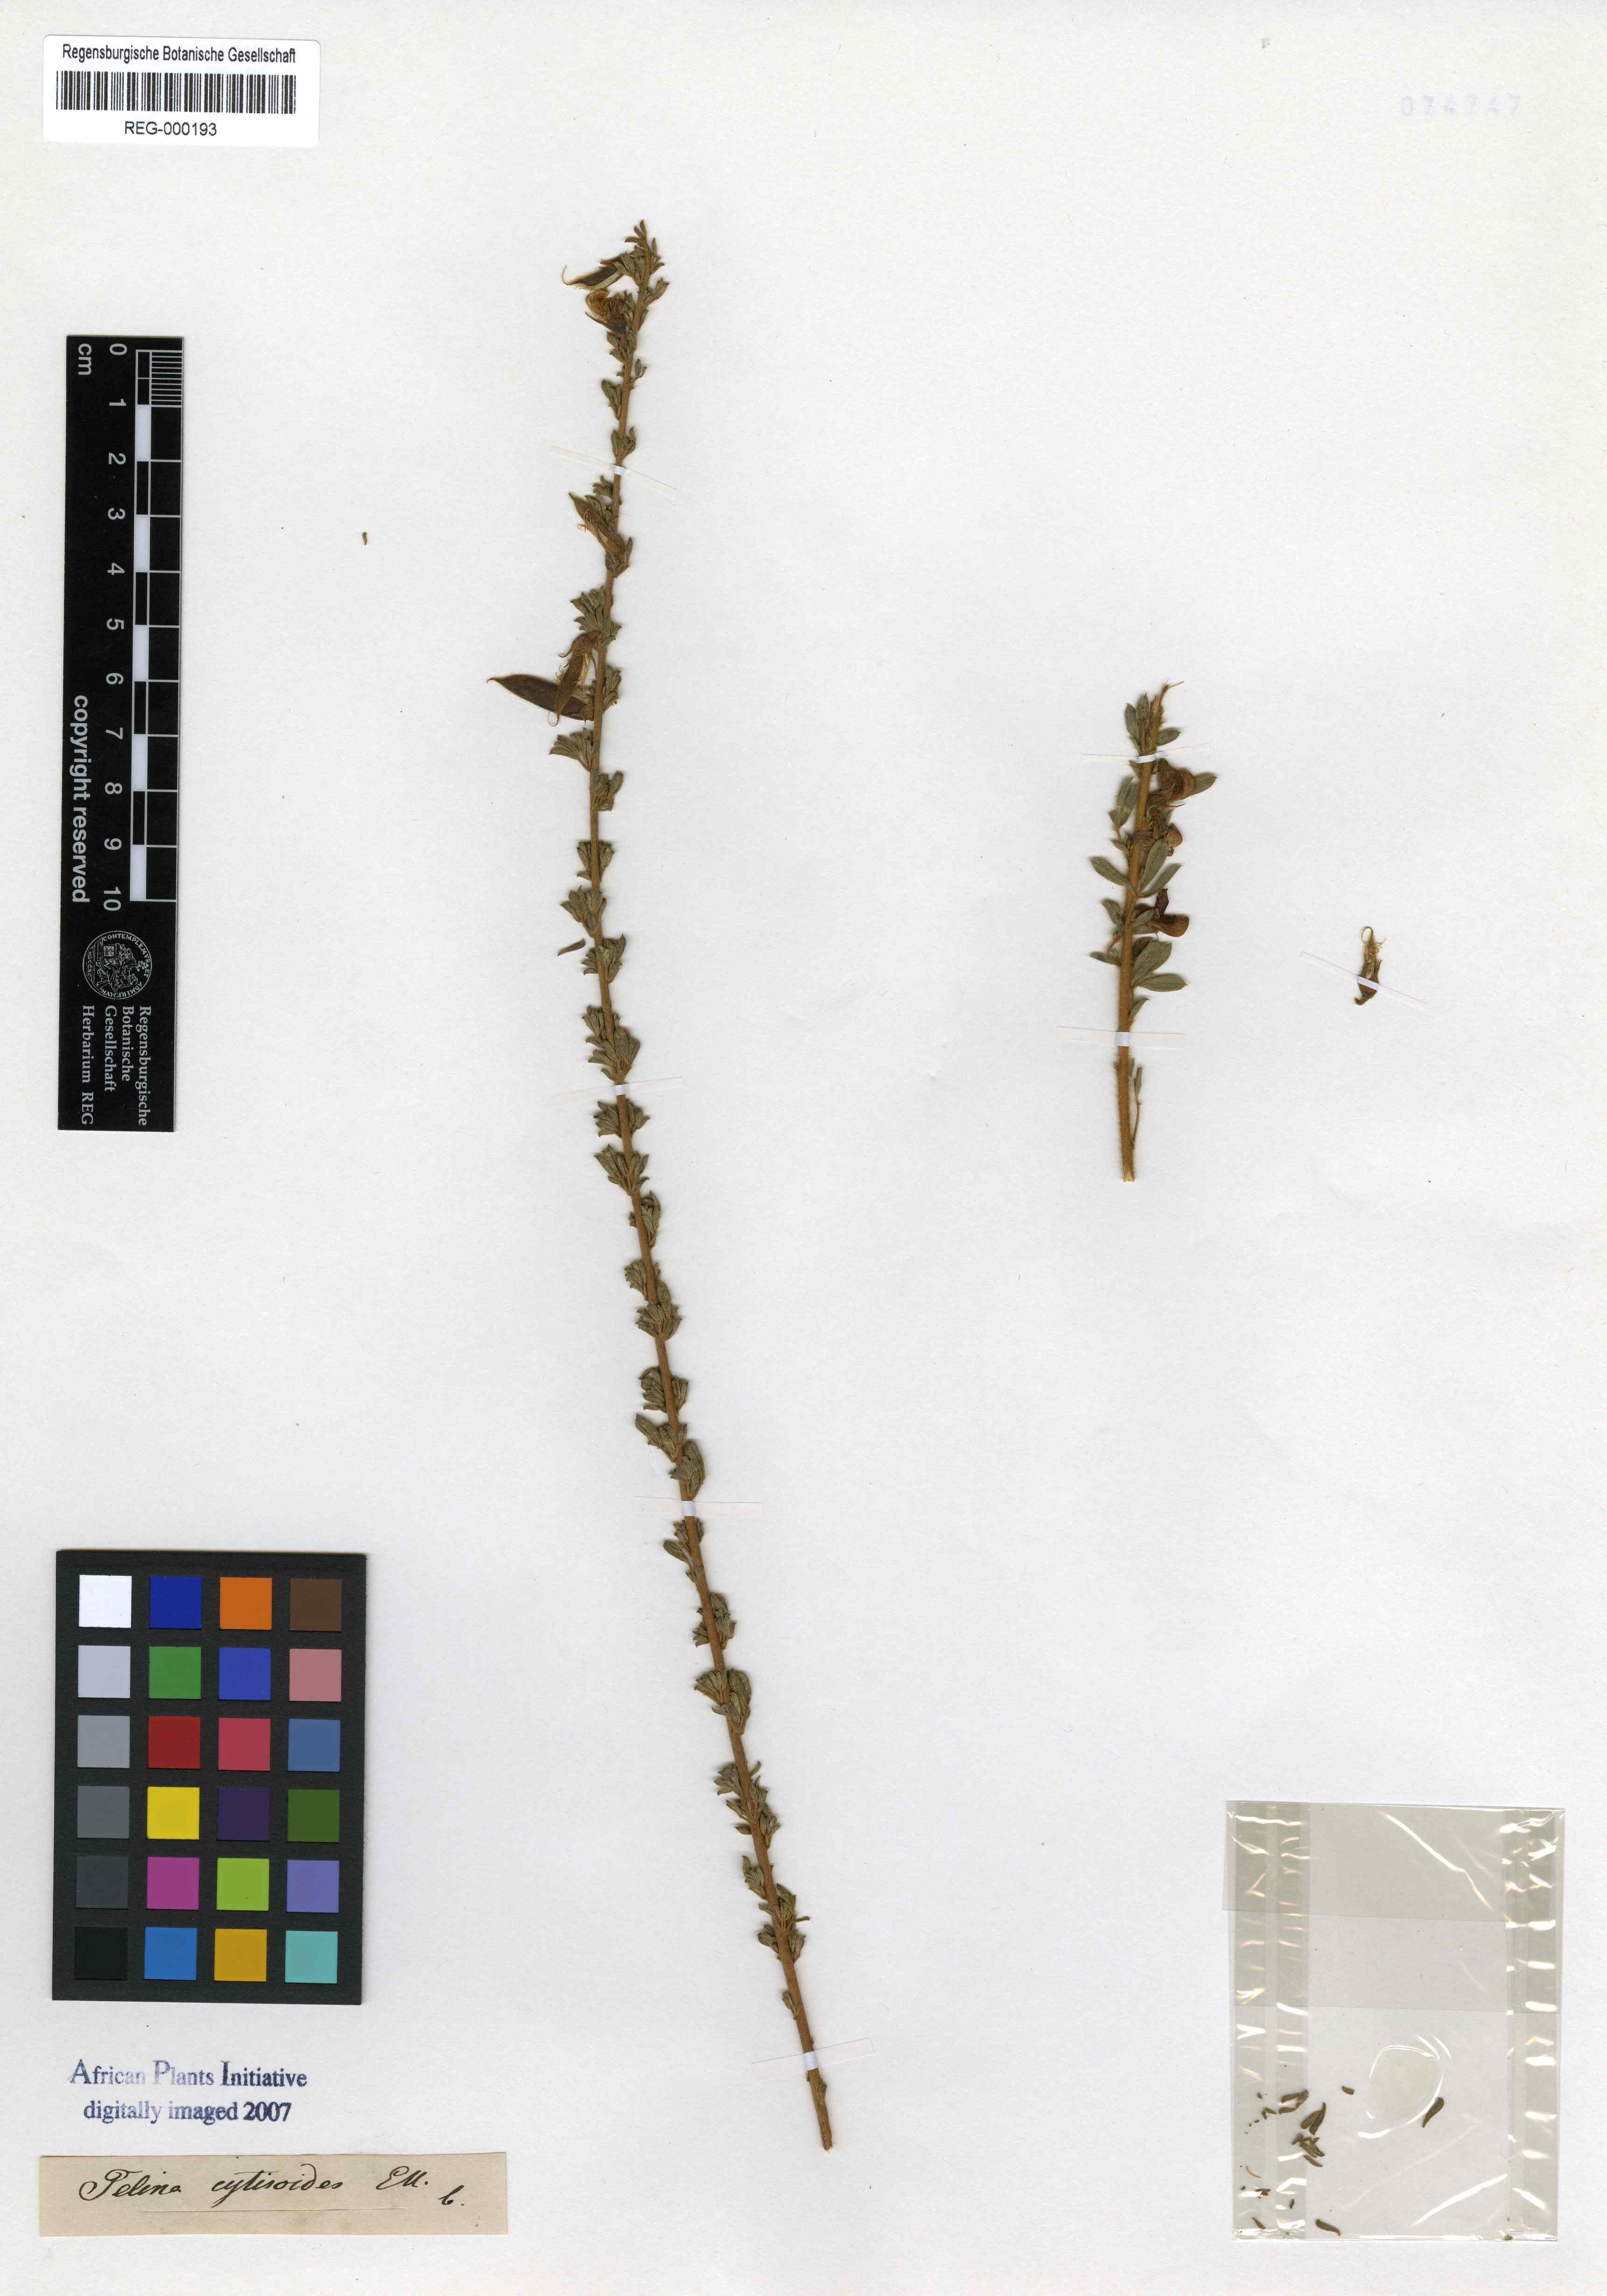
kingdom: Plantae
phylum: Tracheophyta
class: Magnoliopsida
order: Fabales
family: Fabaceae
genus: Lotononis
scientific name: Lotononis stricta
